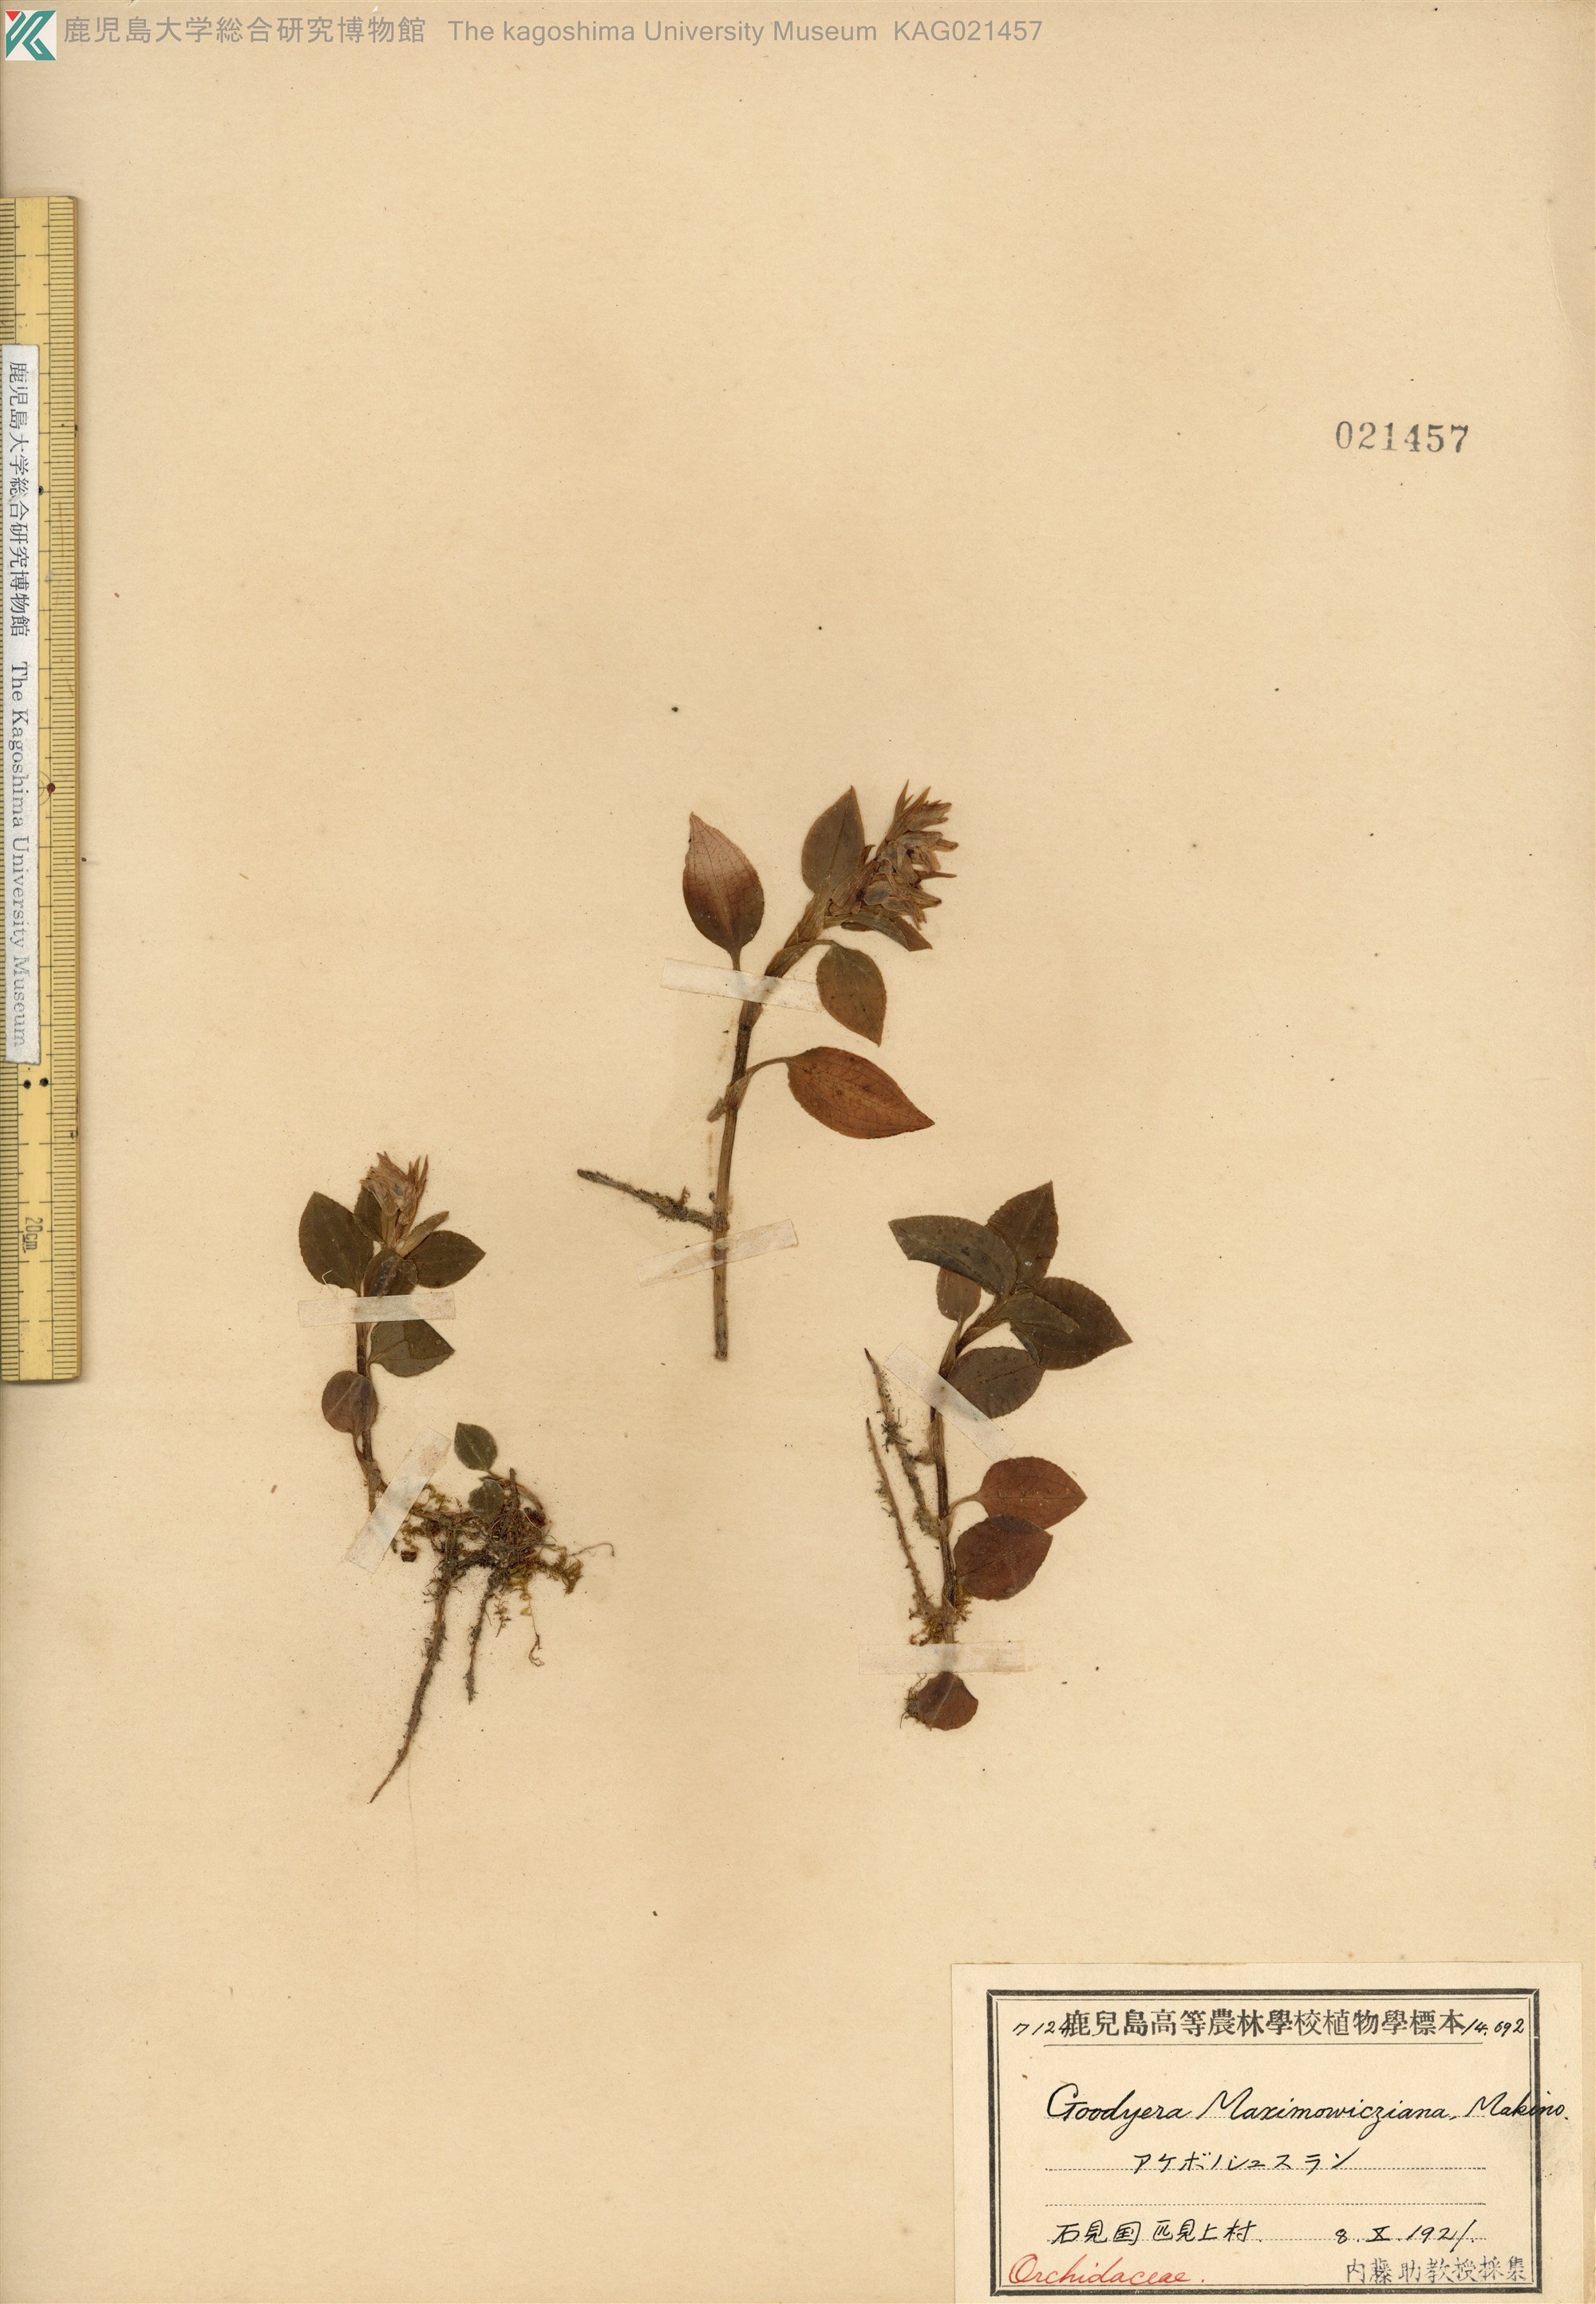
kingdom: Plantae
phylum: Tracheophyta
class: Liliopsida
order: Asparagales
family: Orchidaceae
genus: Goodyera
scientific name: Goodyera henryi
